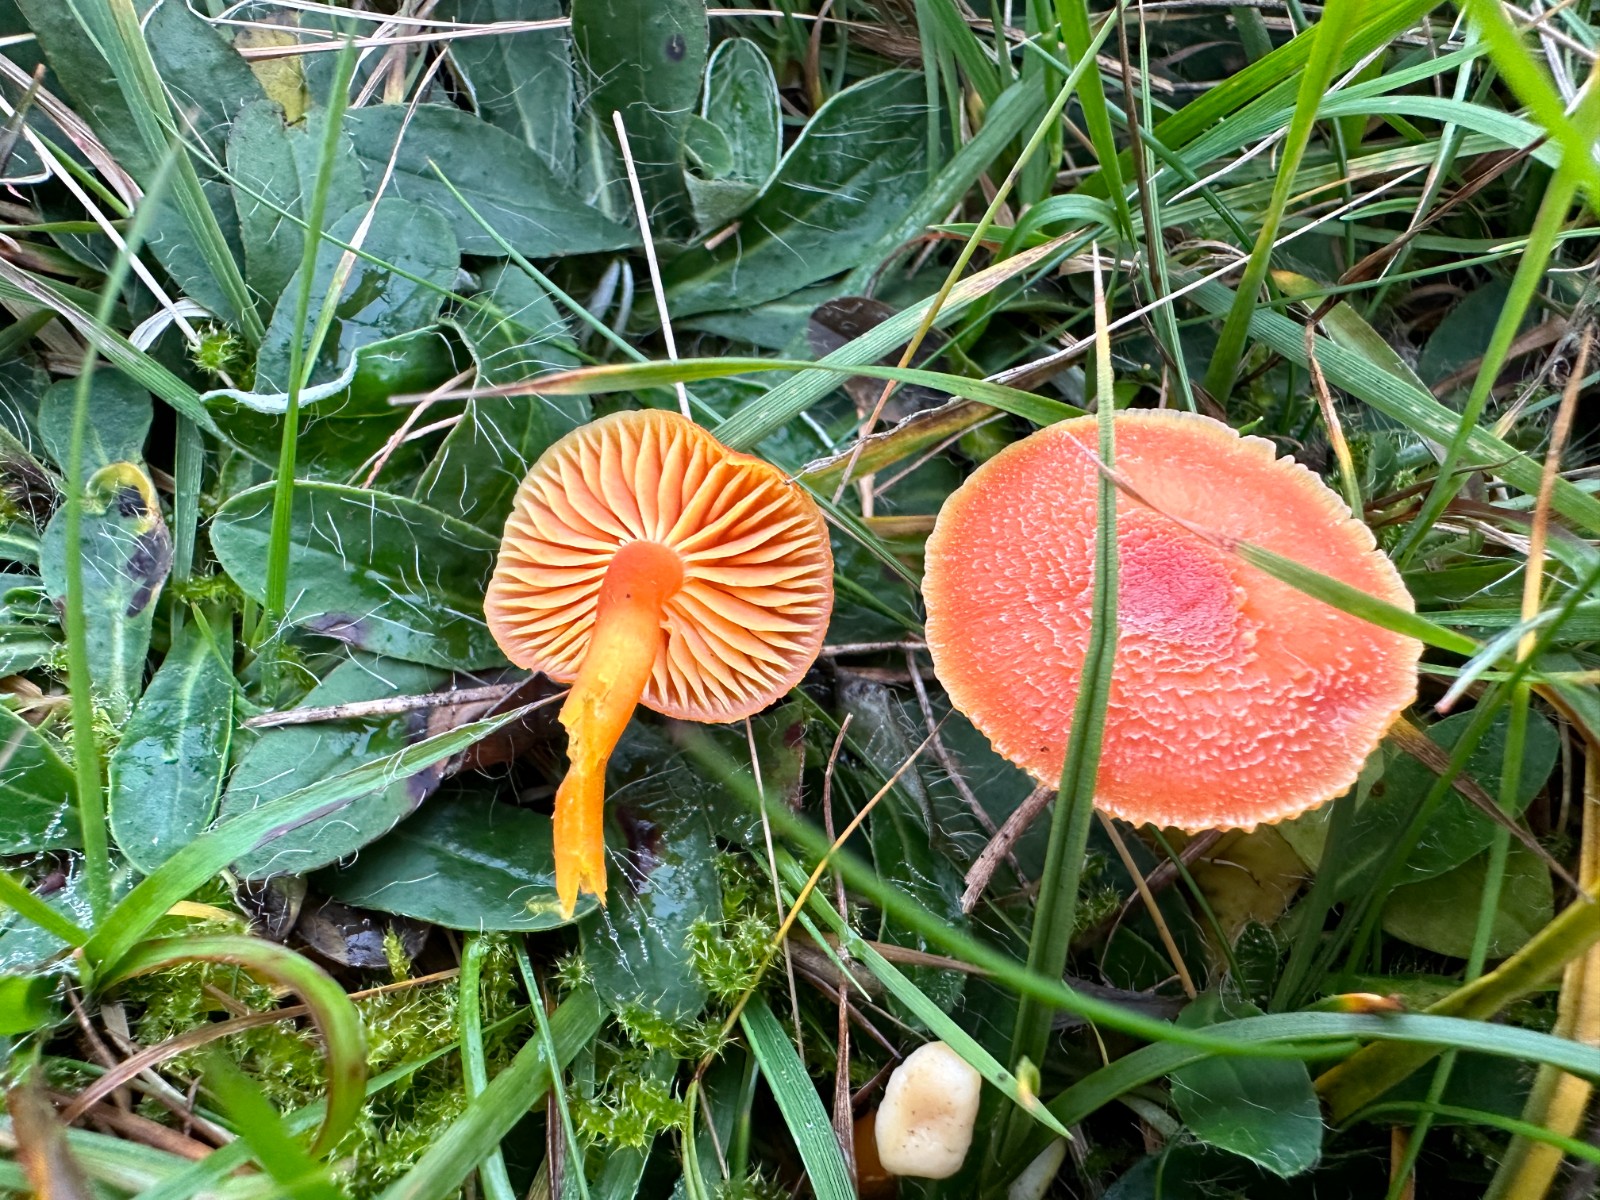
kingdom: Fungi
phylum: Basidiomycota
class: Agaricomycetes
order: Agaricales
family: Hygrophoraceae
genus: Hygrocybe
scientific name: Hygrocybe miniata
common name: mønje-vokshat
